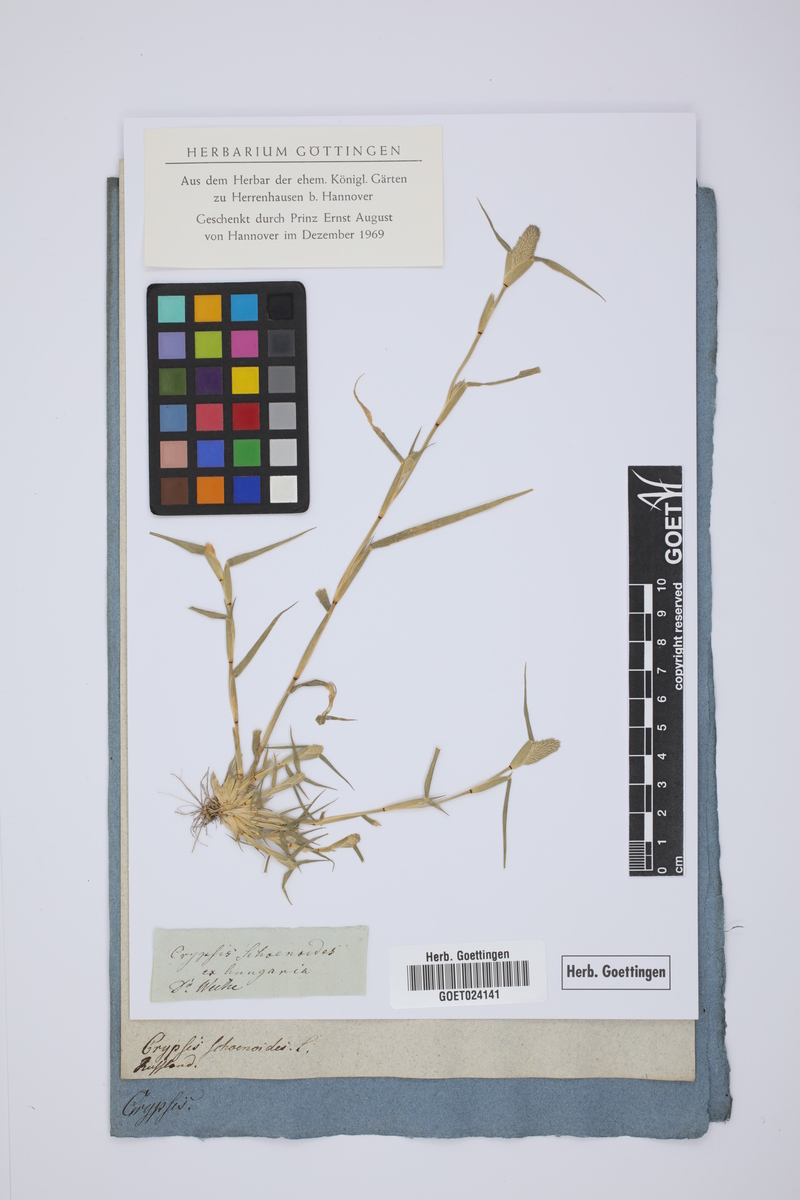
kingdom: Plantae
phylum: Tracheophyta
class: Liliopsida
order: Poales
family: Poaceae
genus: Sporobolus
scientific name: Sporobolus schoenoides
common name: Rush-like timothy
